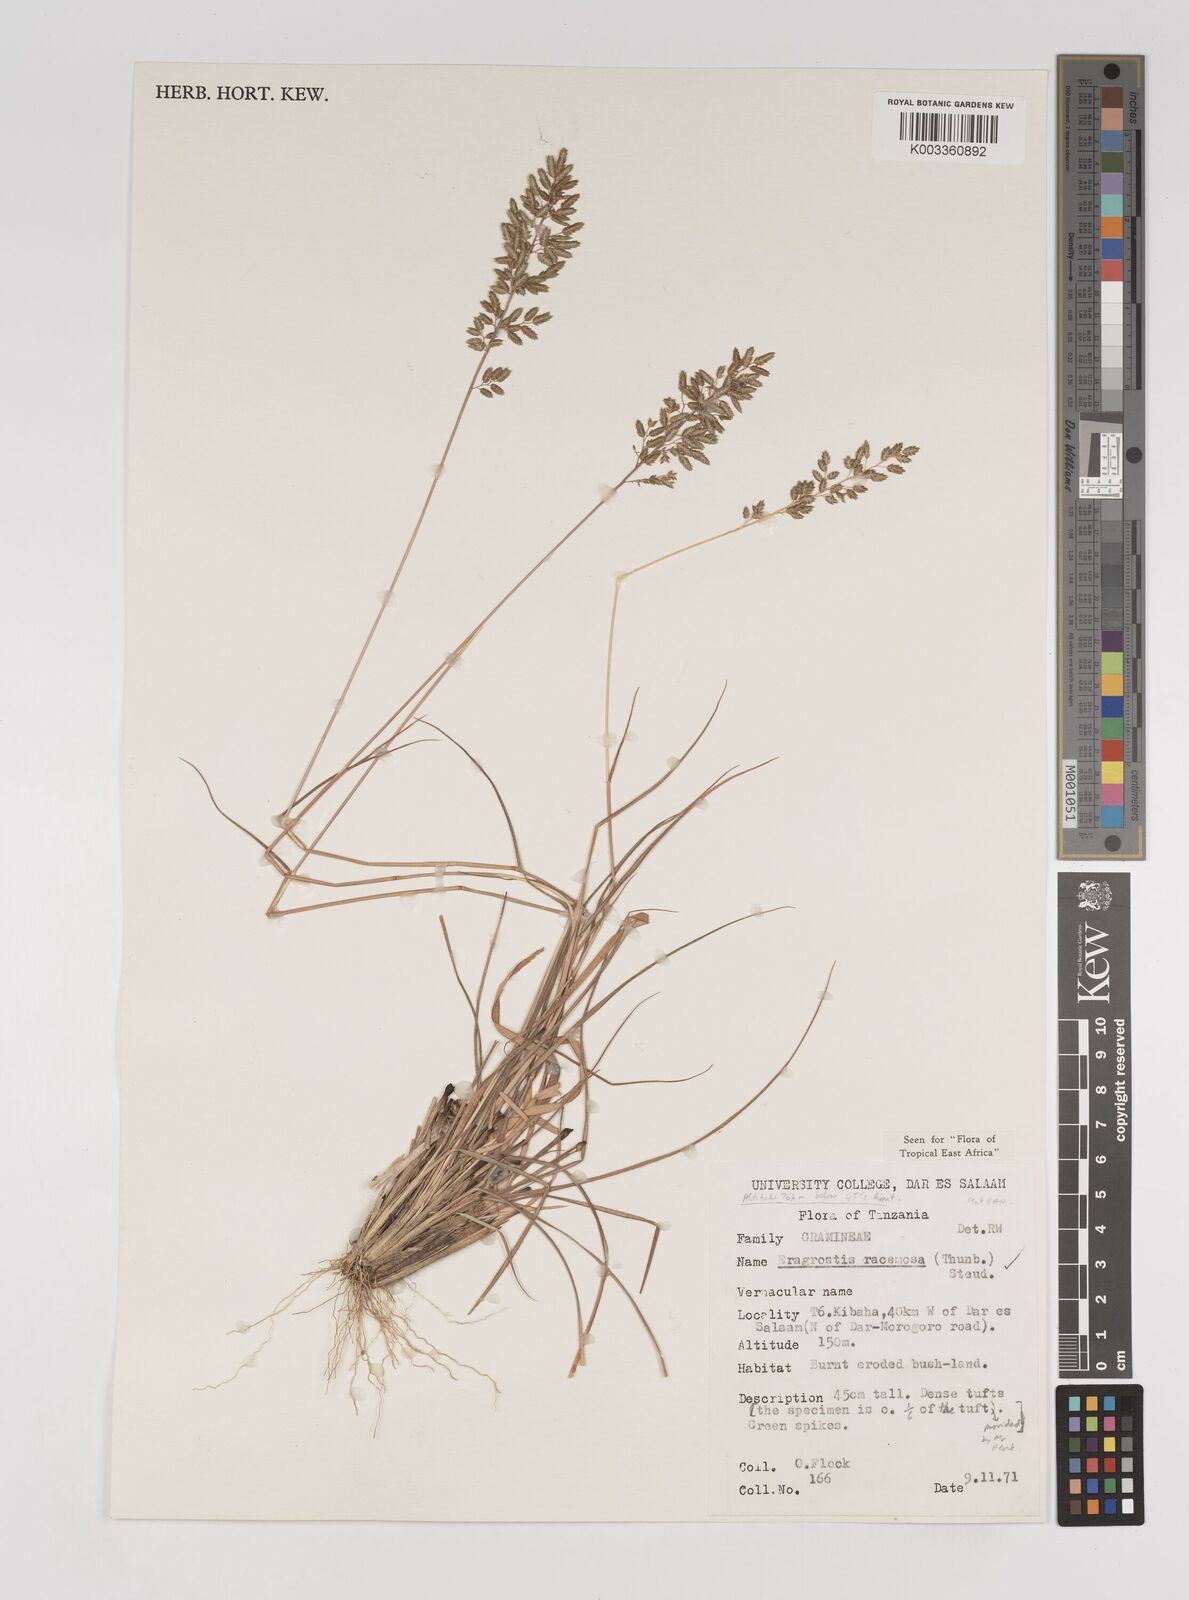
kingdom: Plantae
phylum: Tracheophyta
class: Liliopsida
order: Poales
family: Poaceae
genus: Eragrostis
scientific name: Eragrostis racemosa
